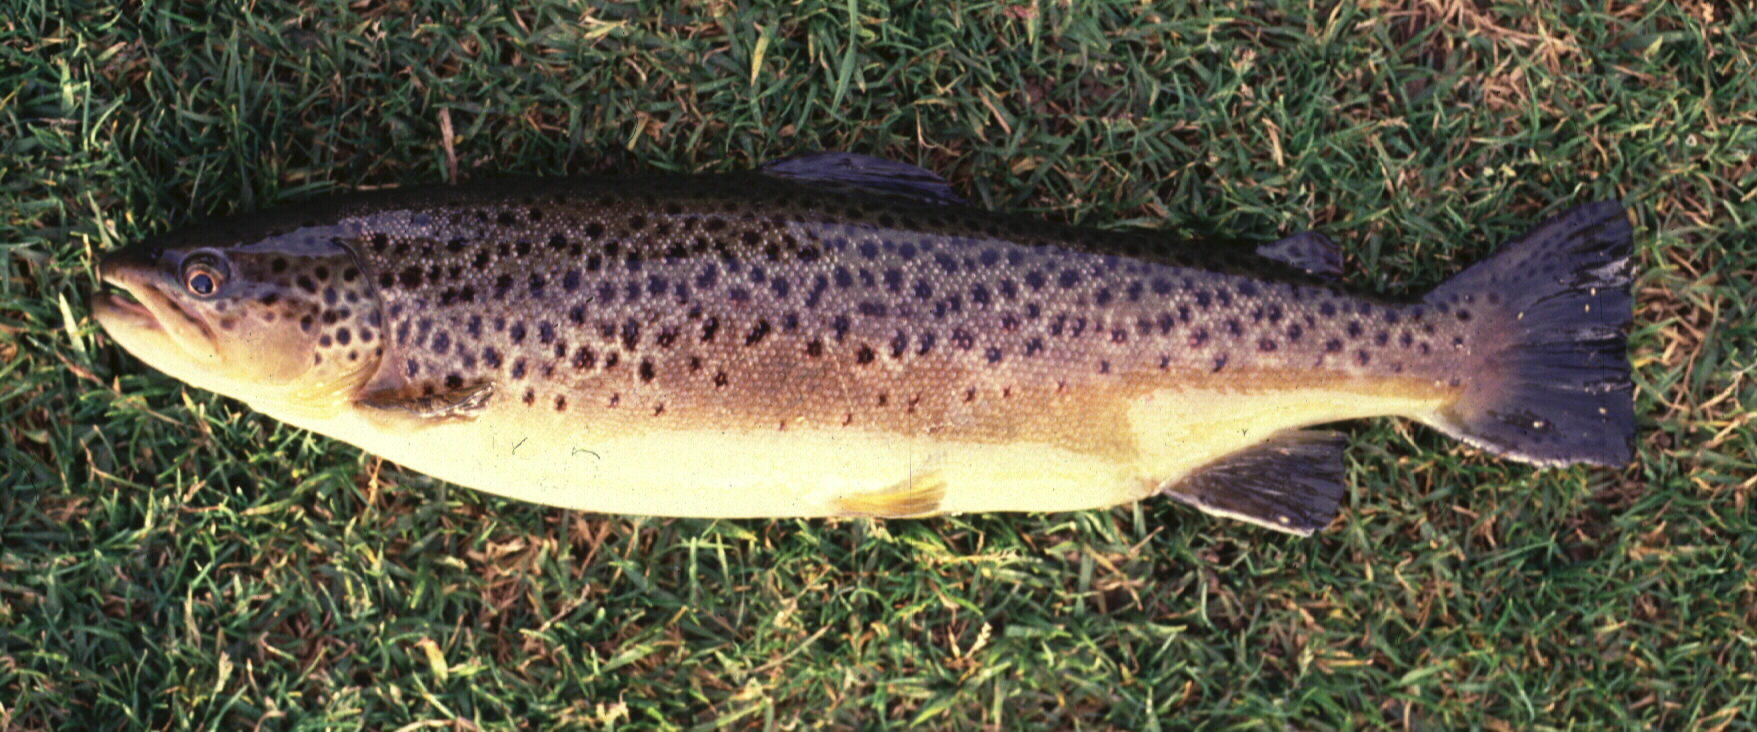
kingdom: Animalia
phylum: Chordata
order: Salmoniformes
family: Salmonidae
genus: Salmo
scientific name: Salmo trutta
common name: Brown trout
